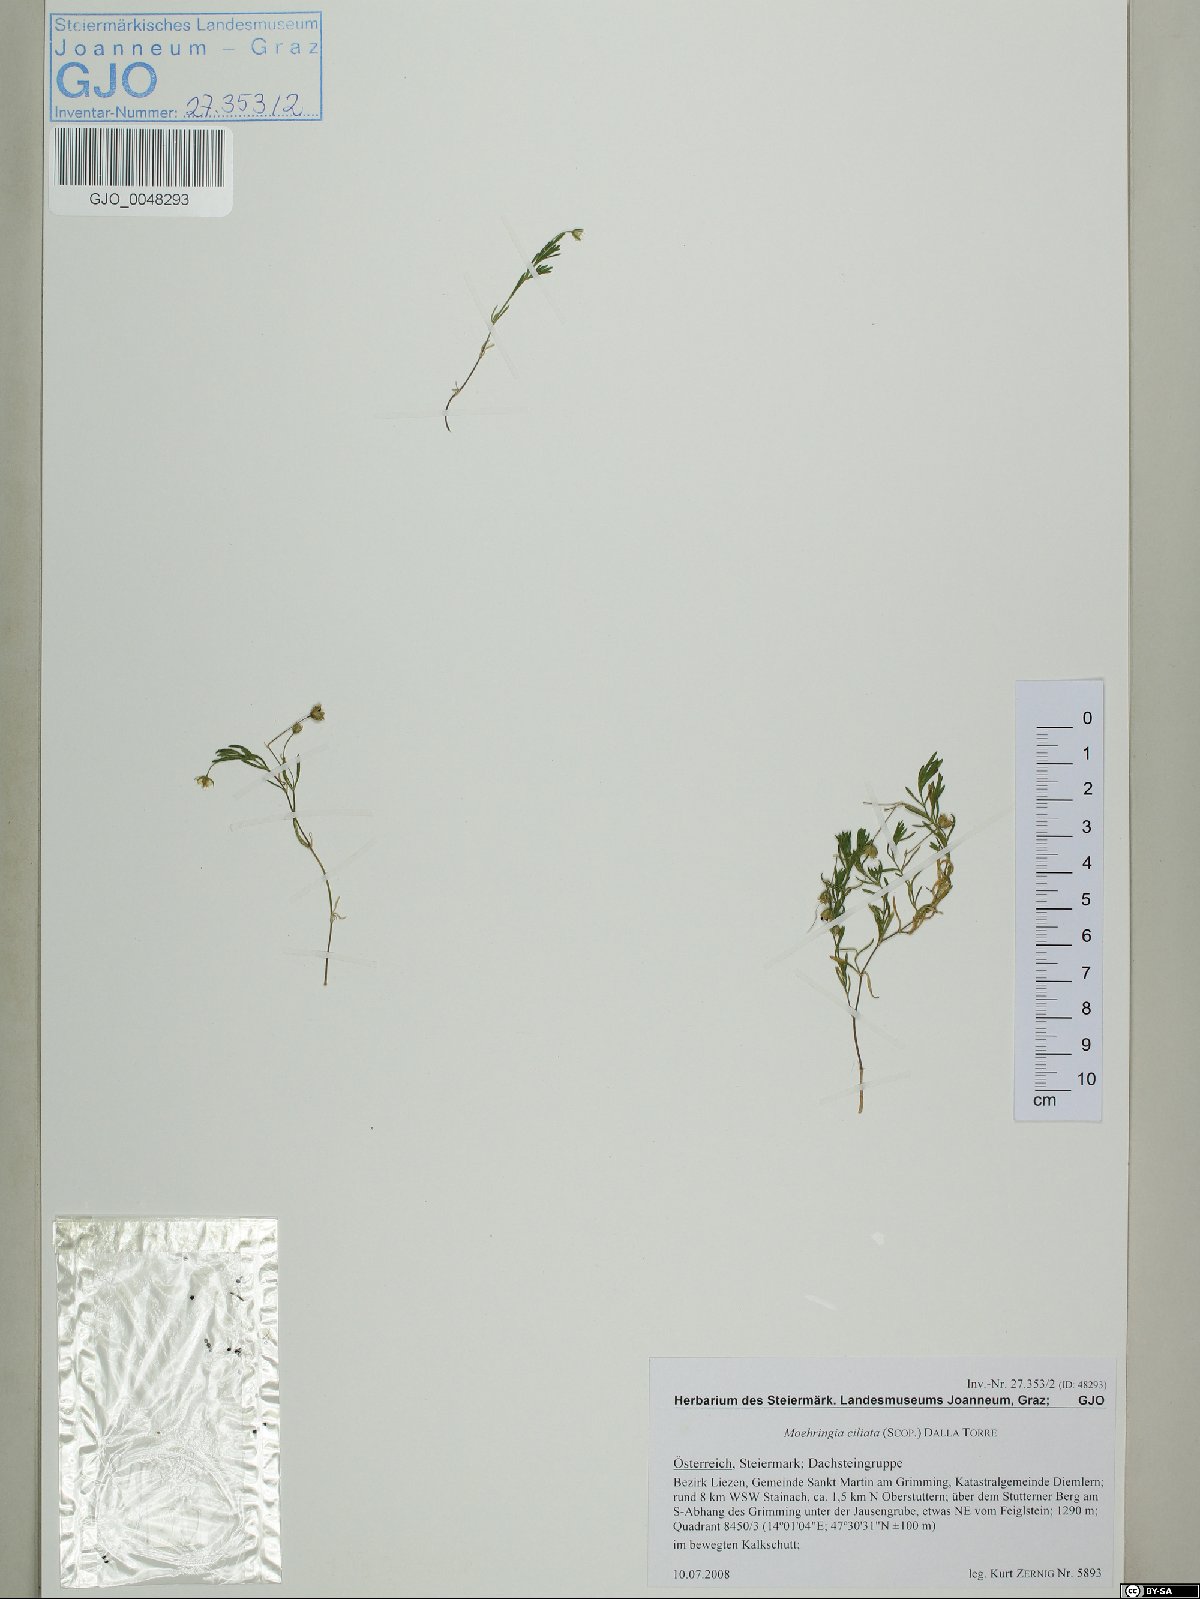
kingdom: Plantae
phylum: Tracheophyta
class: Magnoliopsida
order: Caryophyllales
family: Caryophyllaceae
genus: Moehringia
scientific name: Moehringia ciliata
